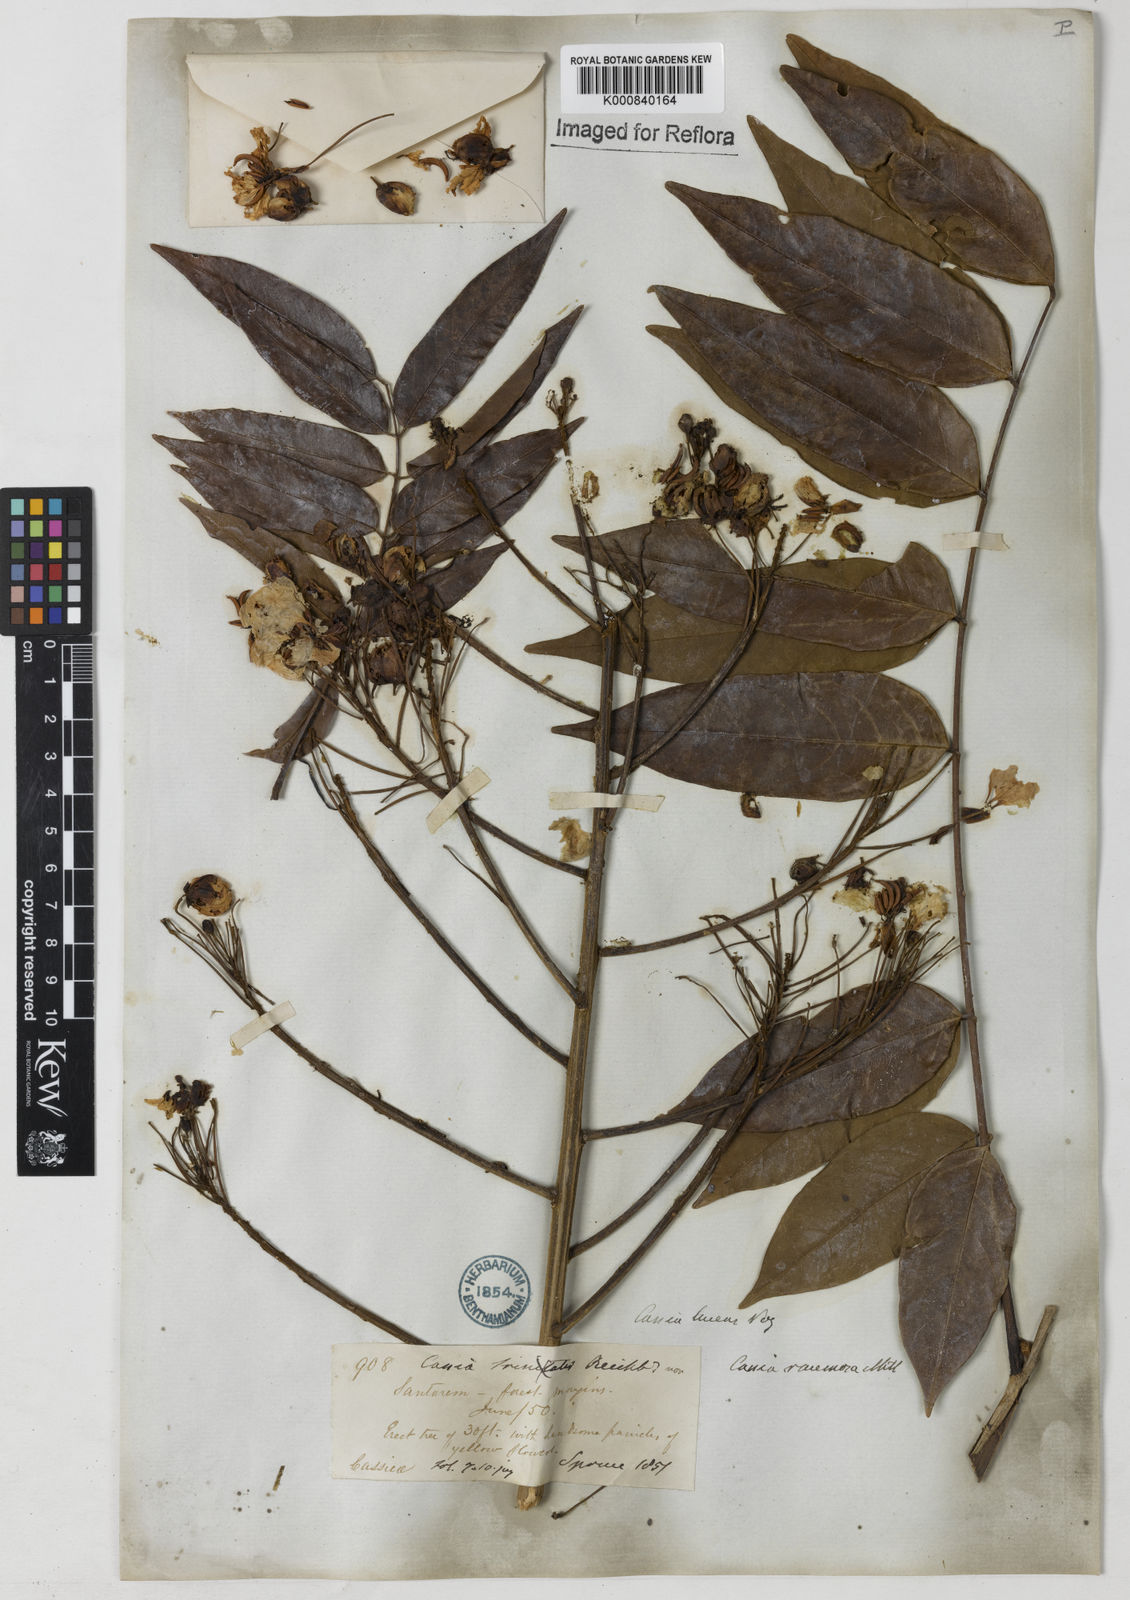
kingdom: Plantae
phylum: Tracheophyta
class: Magnoliopsida
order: Fabales
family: Fabaceae
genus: Senna
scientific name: Senna silvestris
